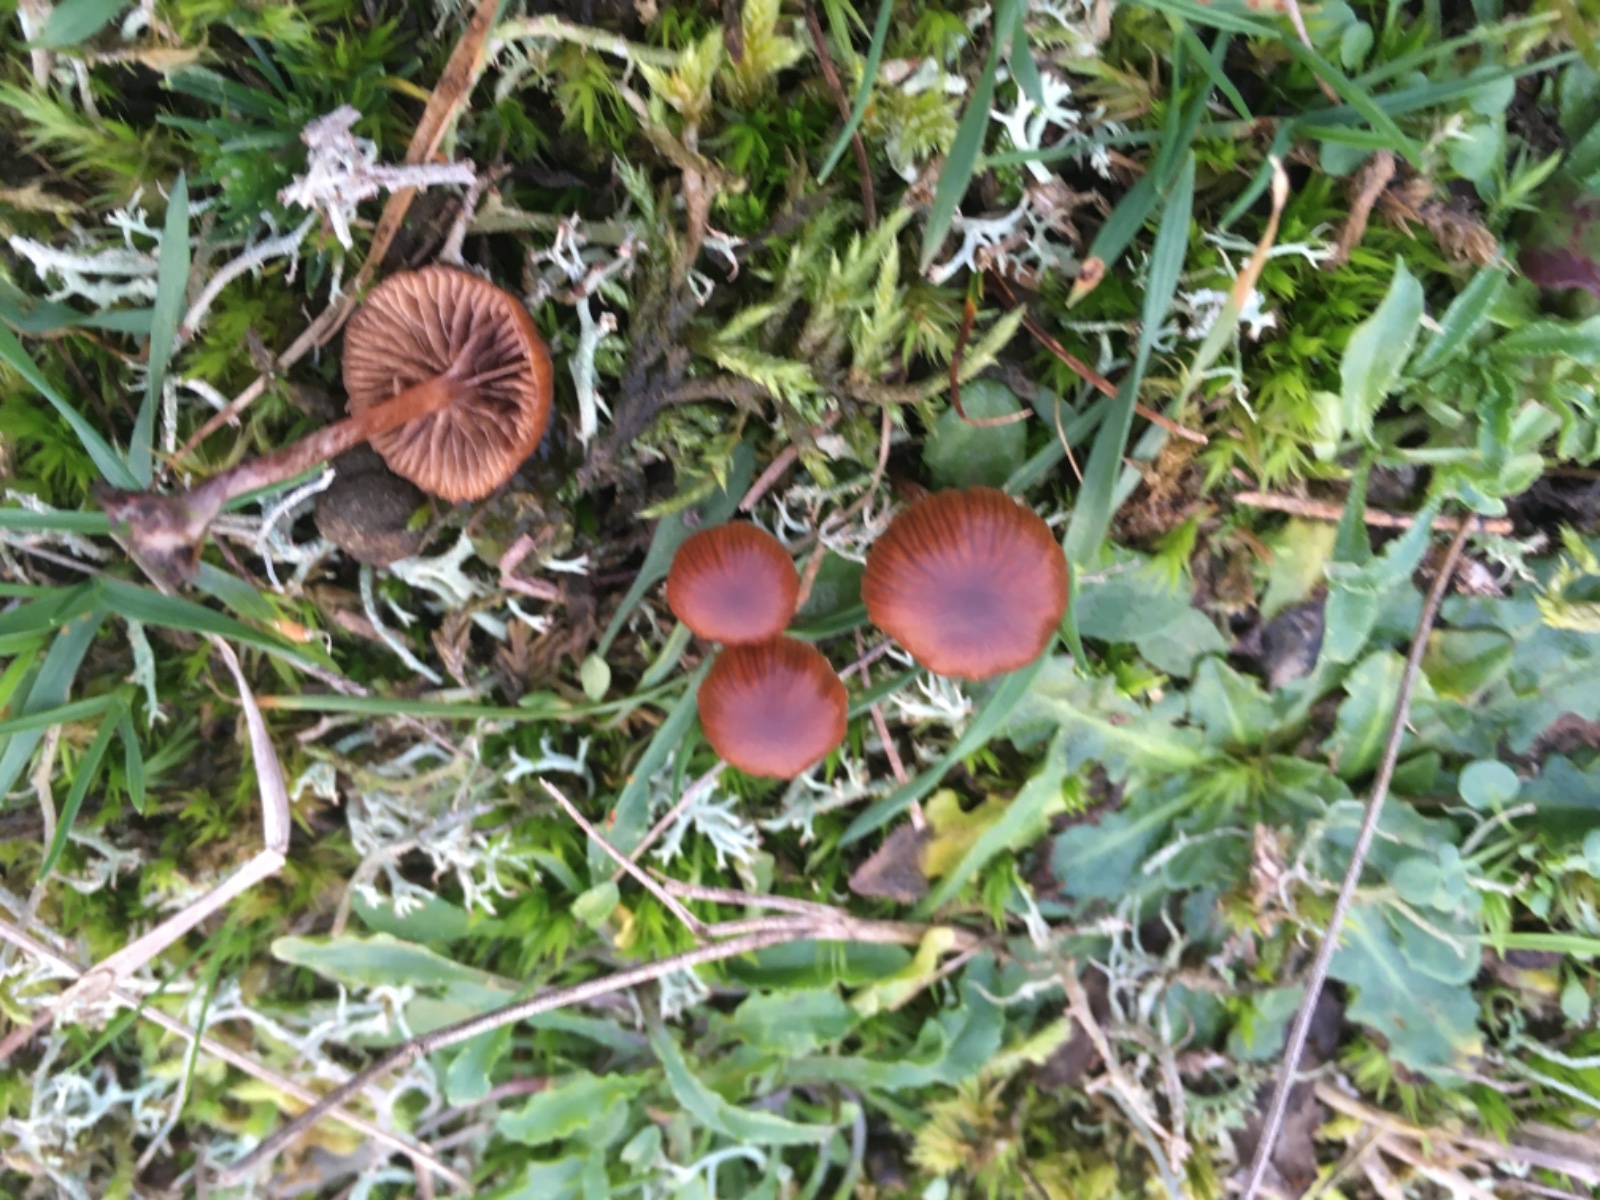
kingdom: Fungi
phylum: Basidiomycota
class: Agaricomycetes
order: Agaricales
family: Strophariaceae
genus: Deconica
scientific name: Deconica montana
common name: rødbrun stråhat
